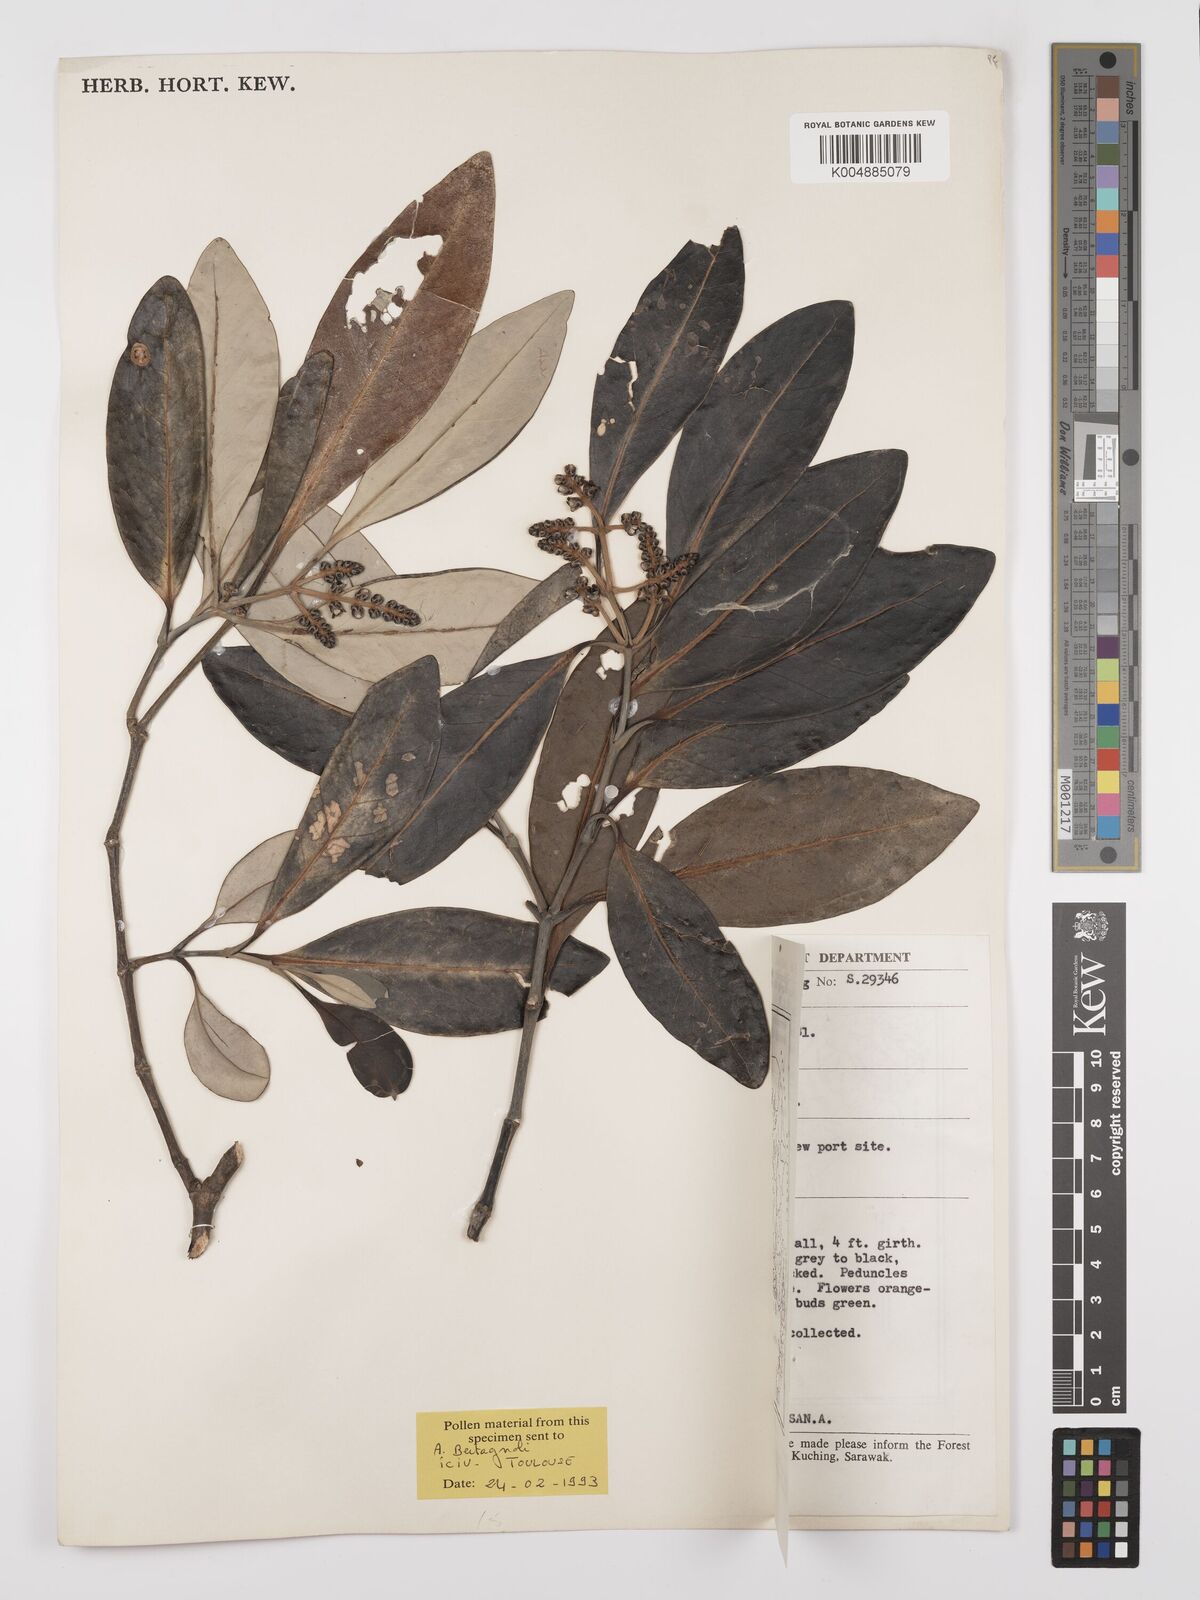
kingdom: Plantae
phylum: Tracheophyta
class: Magnoliopsida
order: Lamiales
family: Acanthaceae
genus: Avicennia
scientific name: Avicennia alba
